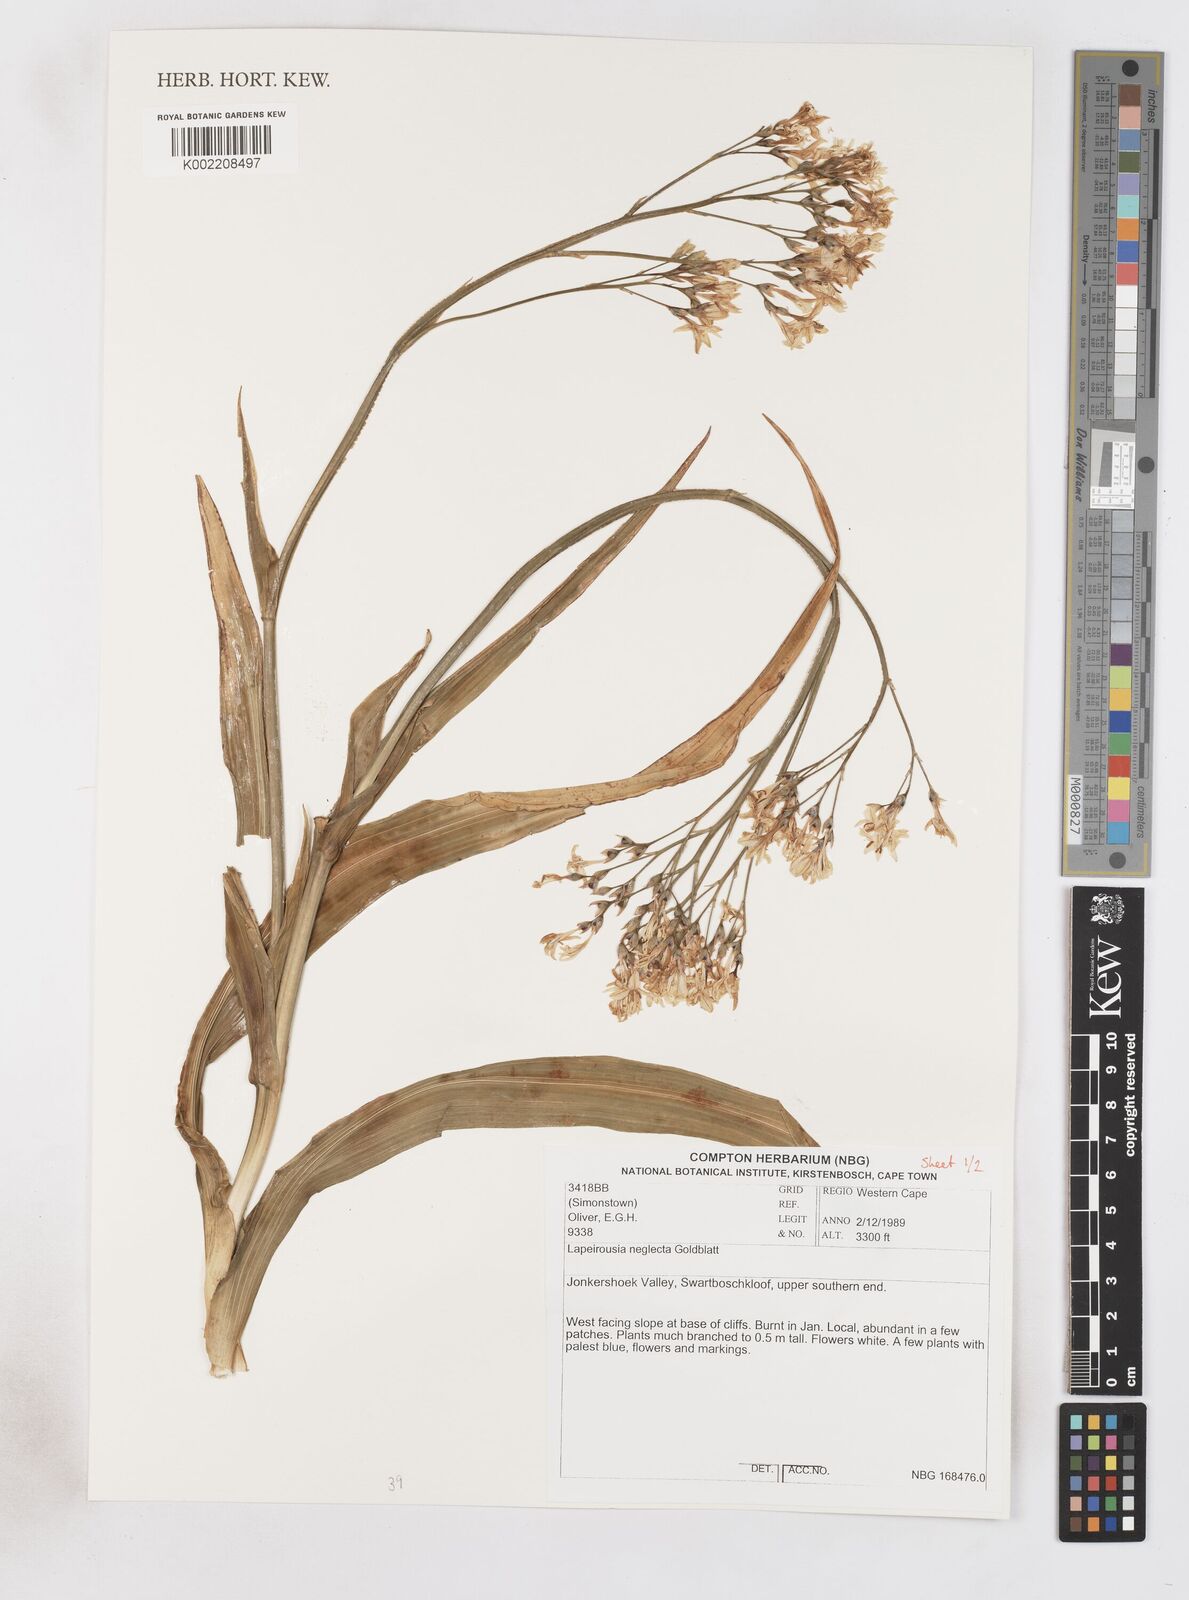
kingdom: Plantae
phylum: Tracheophyta
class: Liliopsida
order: Asparagales
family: Iridaceae
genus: Schizorhiza
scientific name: Schizorhiza neglecta
